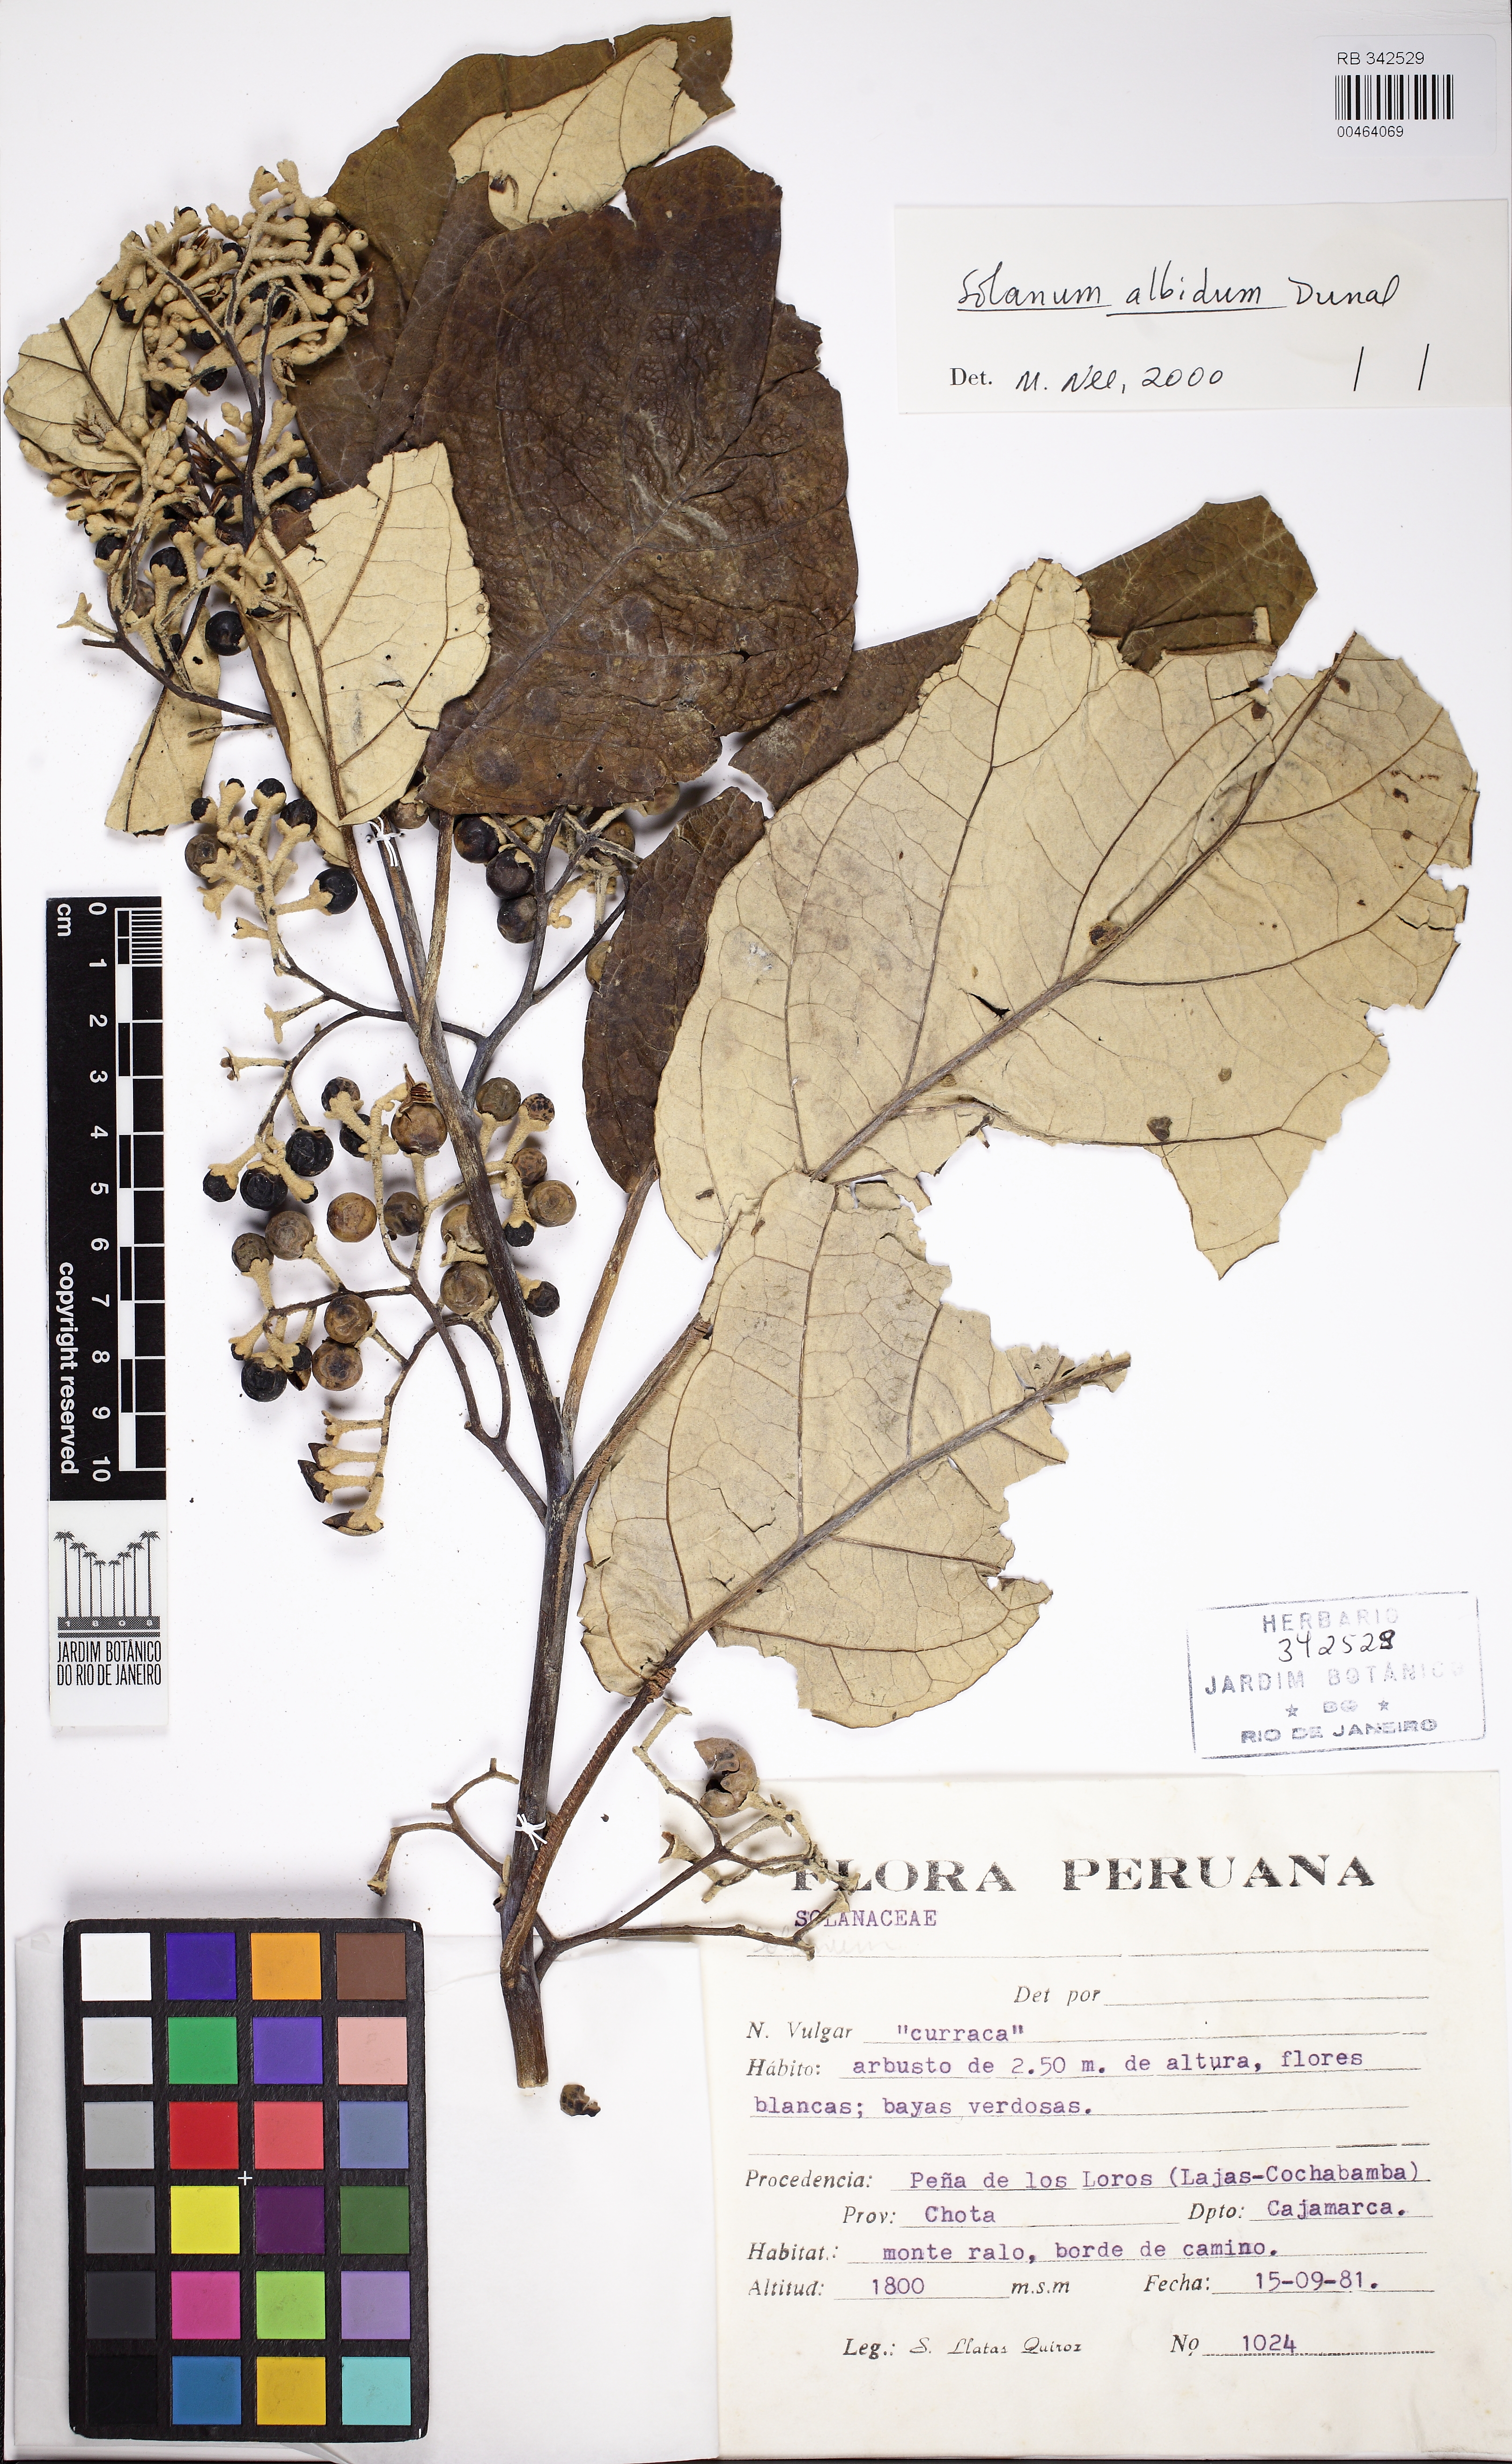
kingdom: Plantae
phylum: Tracheophyta
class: Magnoliopsida
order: Solanales
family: Solanaceae
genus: Solanum
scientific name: Solanum
